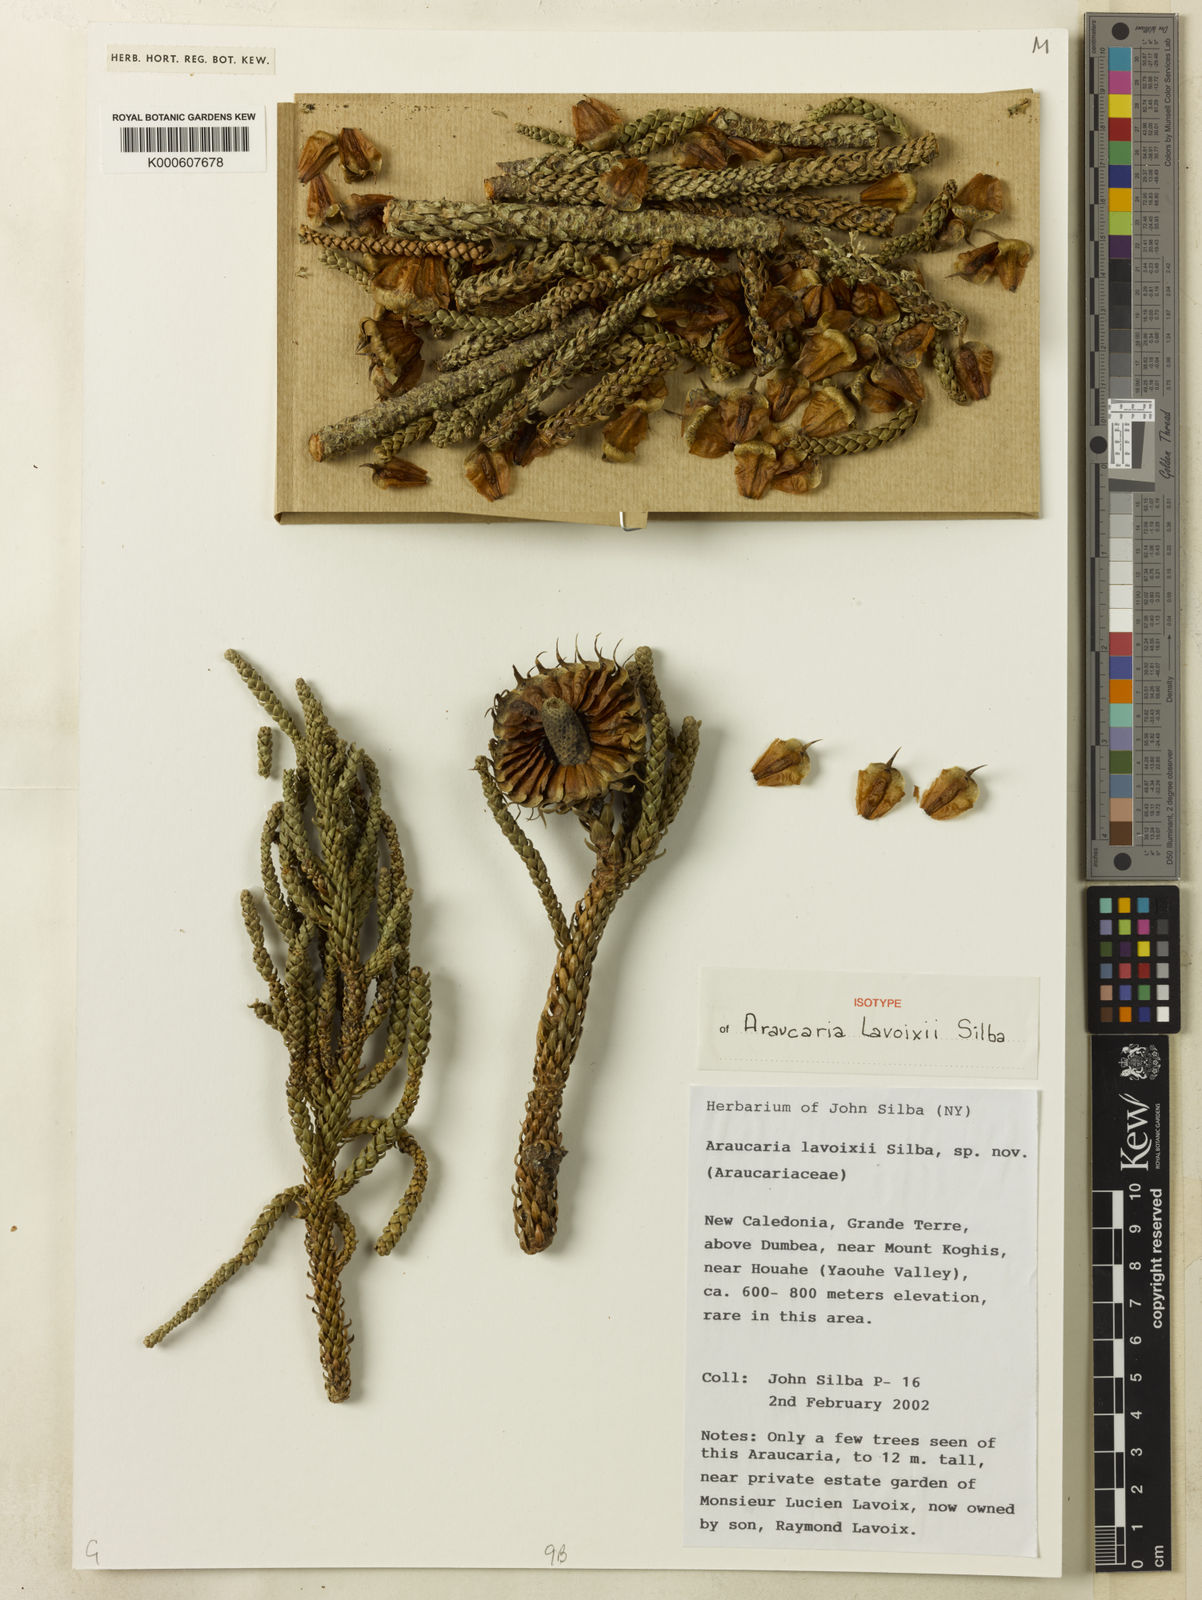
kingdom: Plantae
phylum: Tracheophyta
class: Pinopsida
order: Pinales
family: Araucariaceae
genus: Araucaria
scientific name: Araucaria columnaris
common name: Coral reef araucaria
